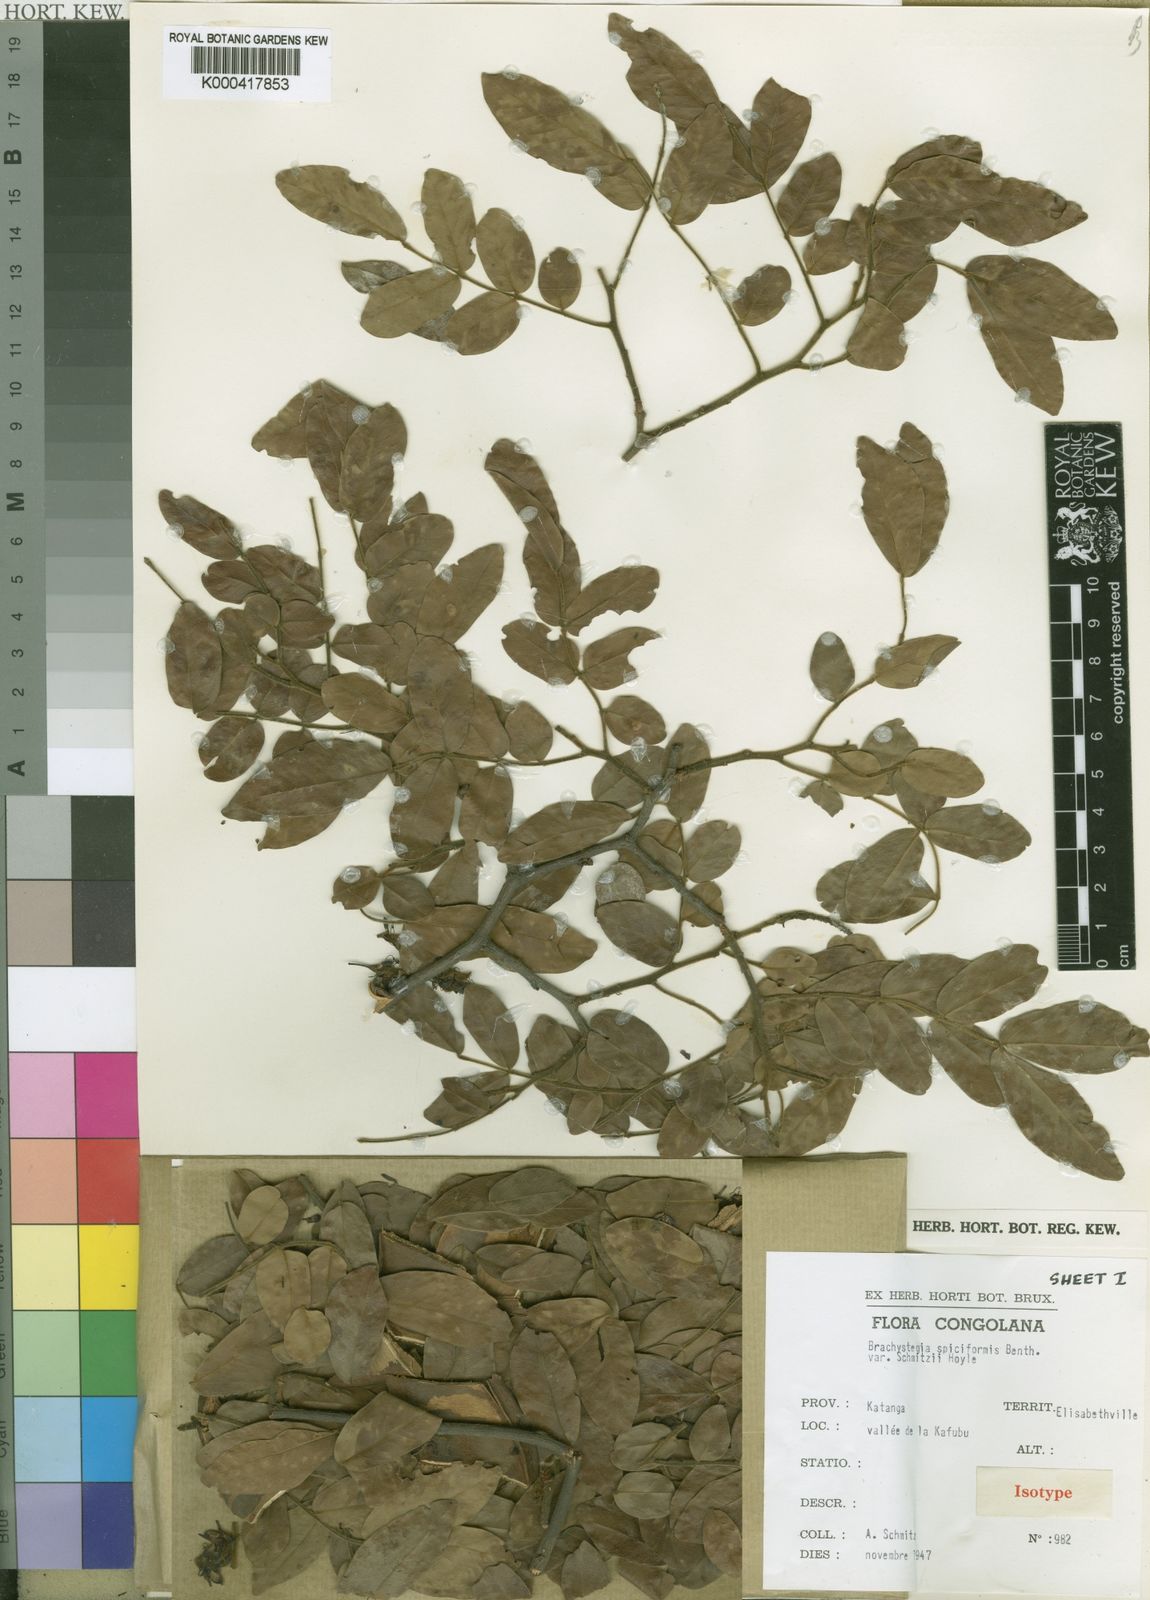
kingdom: Plantae
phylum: Tracheophyta
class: Magnoliopsida
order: Fabales
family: Fabaceae
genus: Brachystegia
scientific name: Brachystegia spiciformis
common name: Zebrawood
